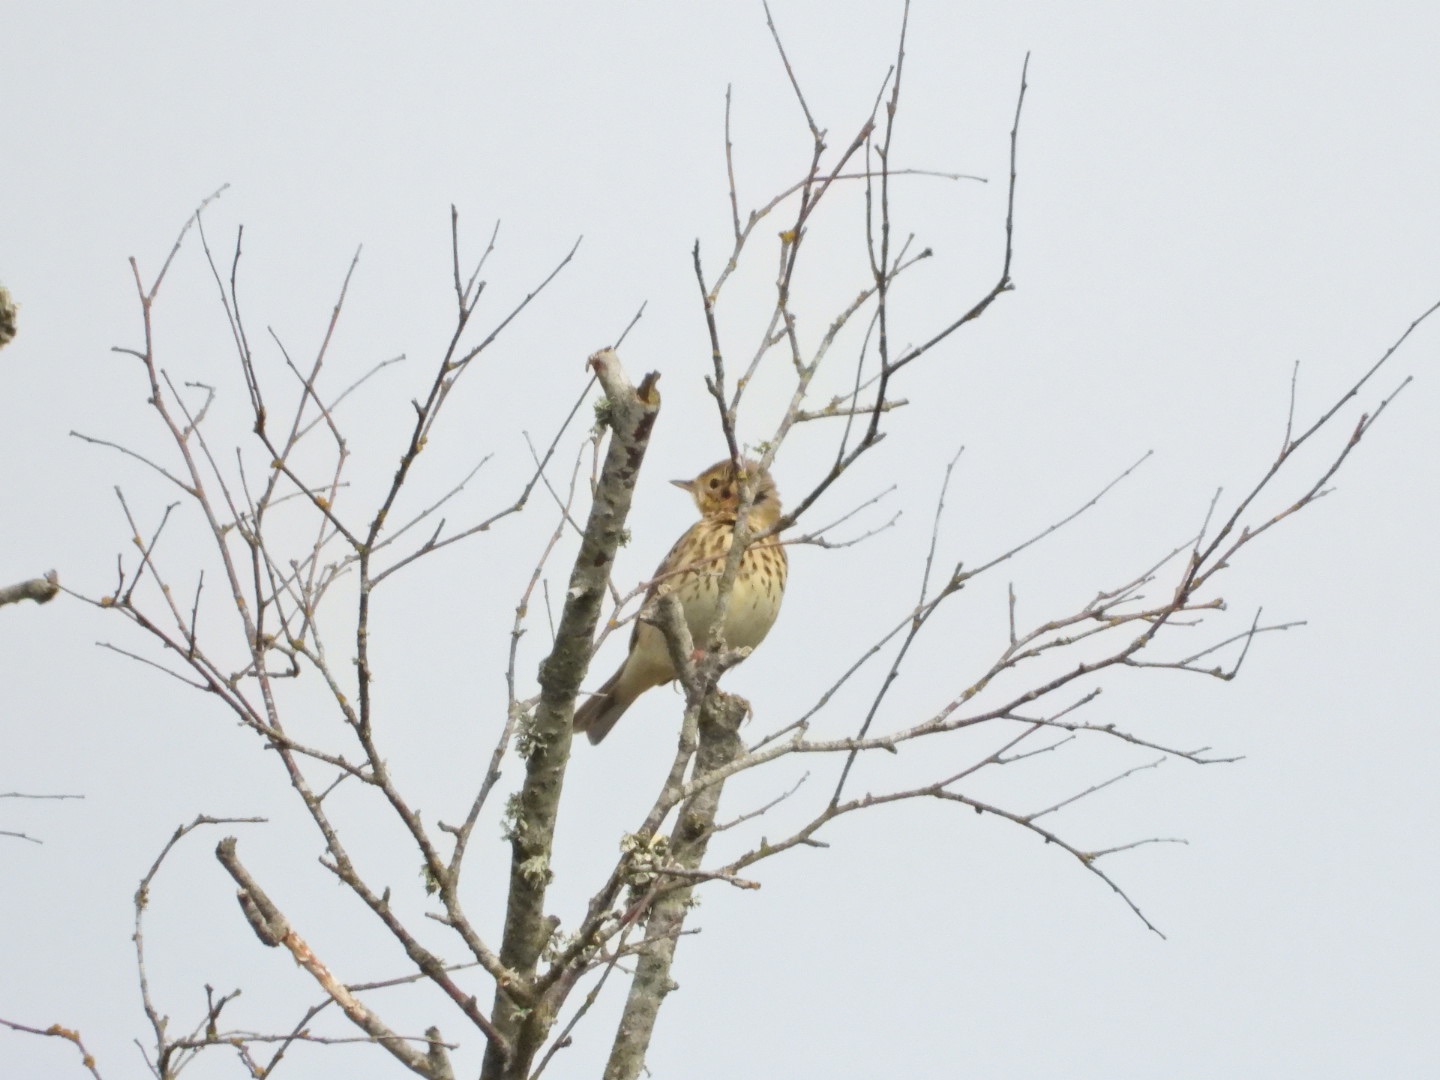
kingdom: Animalia
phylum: Chordata
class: Aves
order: Passeriformes
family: Motacillidae
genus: Anthus
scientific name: Anthus trivialis
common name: Skovpiber
